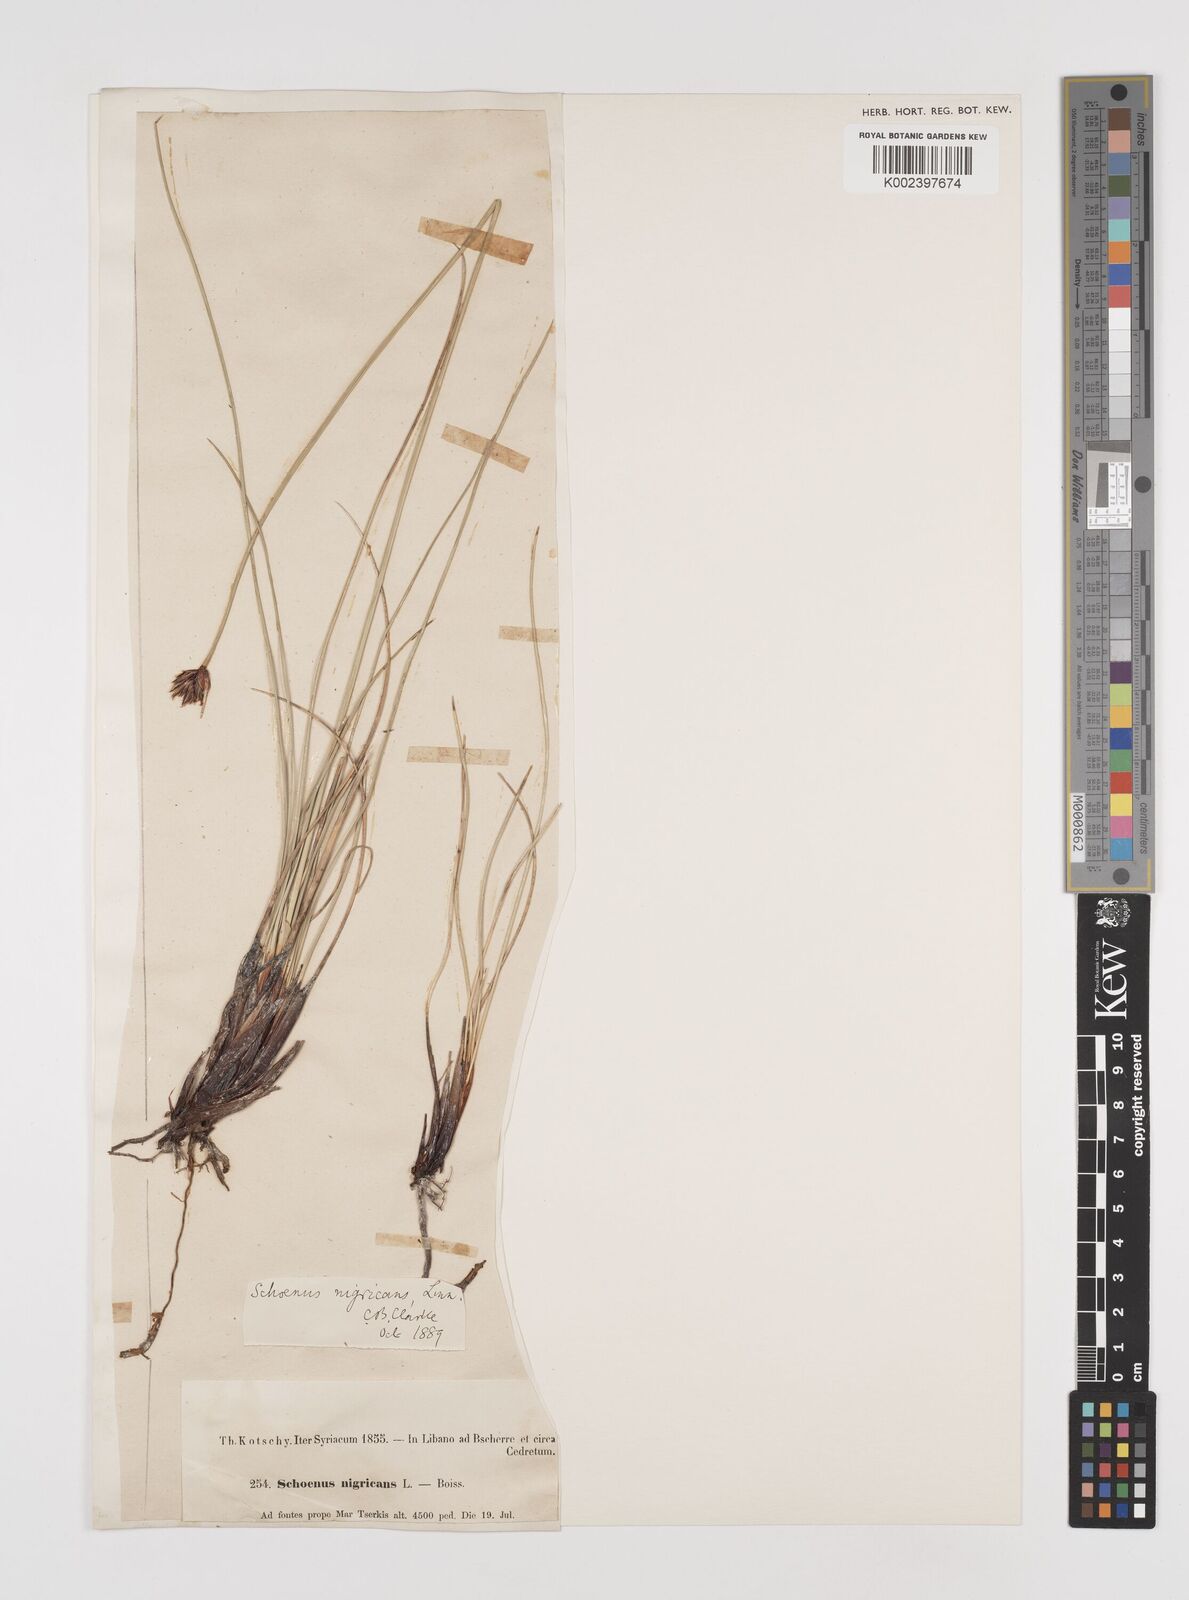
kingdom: Plantae
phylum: Tracheophyta
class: Liliopsida
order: Poales
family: Cyperaceae
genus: Schoenus
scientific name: Schoenus nigricans
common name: Black bog-rush
